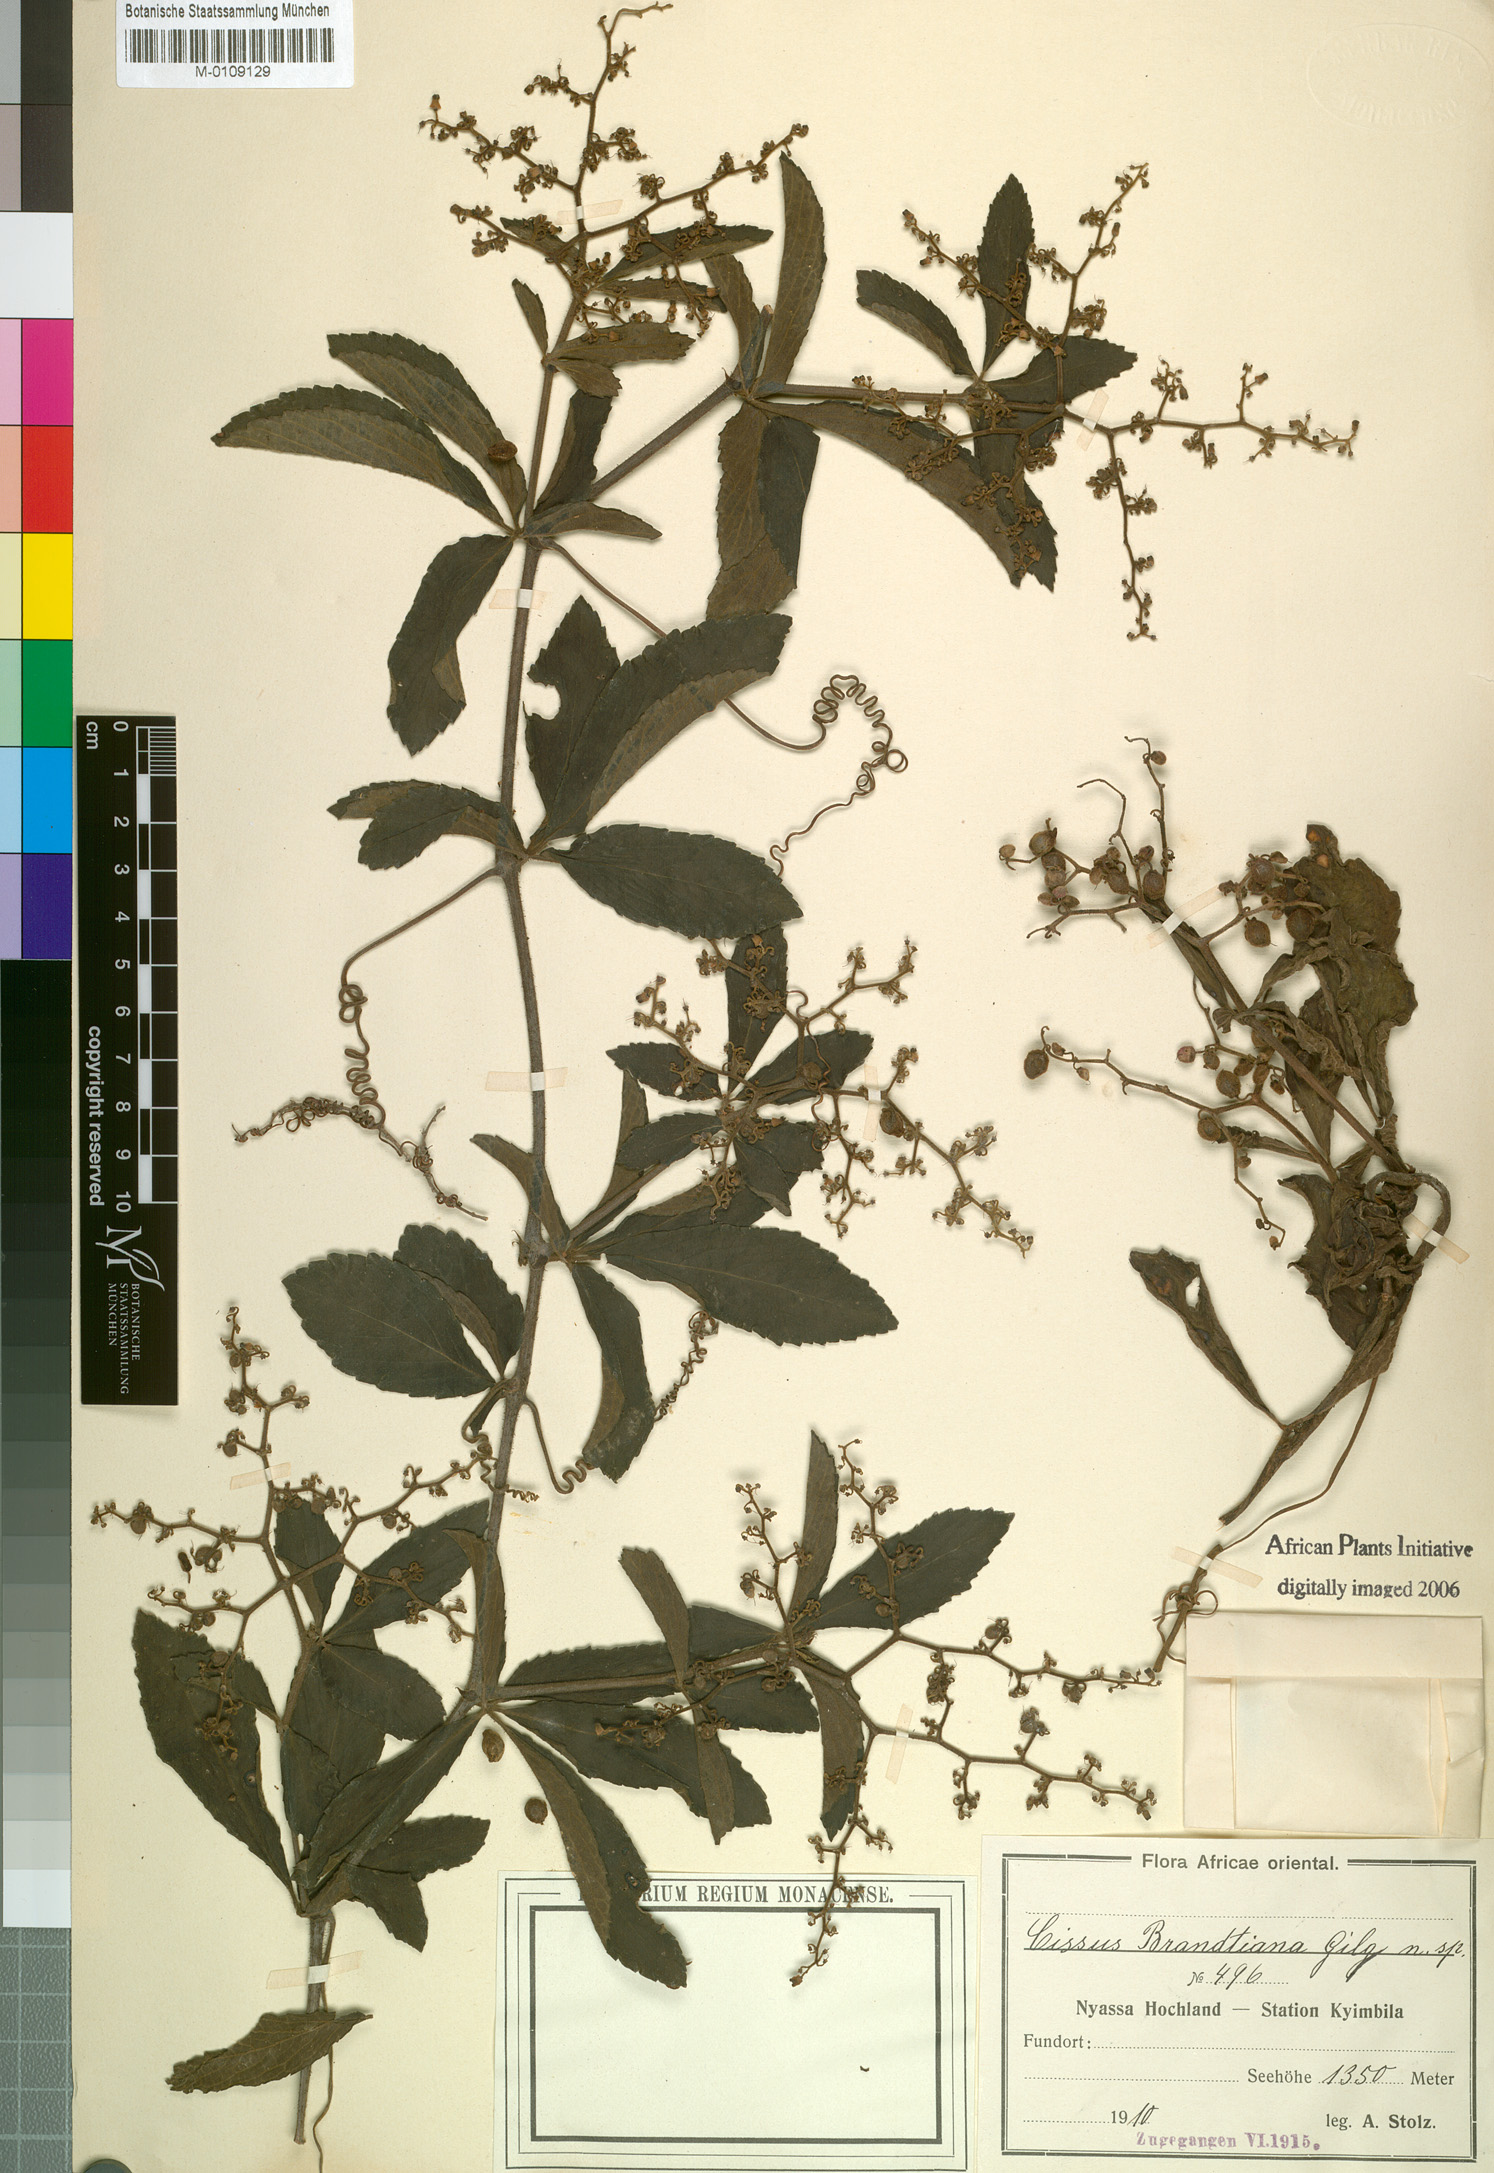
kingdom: Plantae
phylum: Tracheophyta
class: Magnoliopsida
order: Vitales
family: Vitaceae
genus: Cissus
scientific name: Cissus
